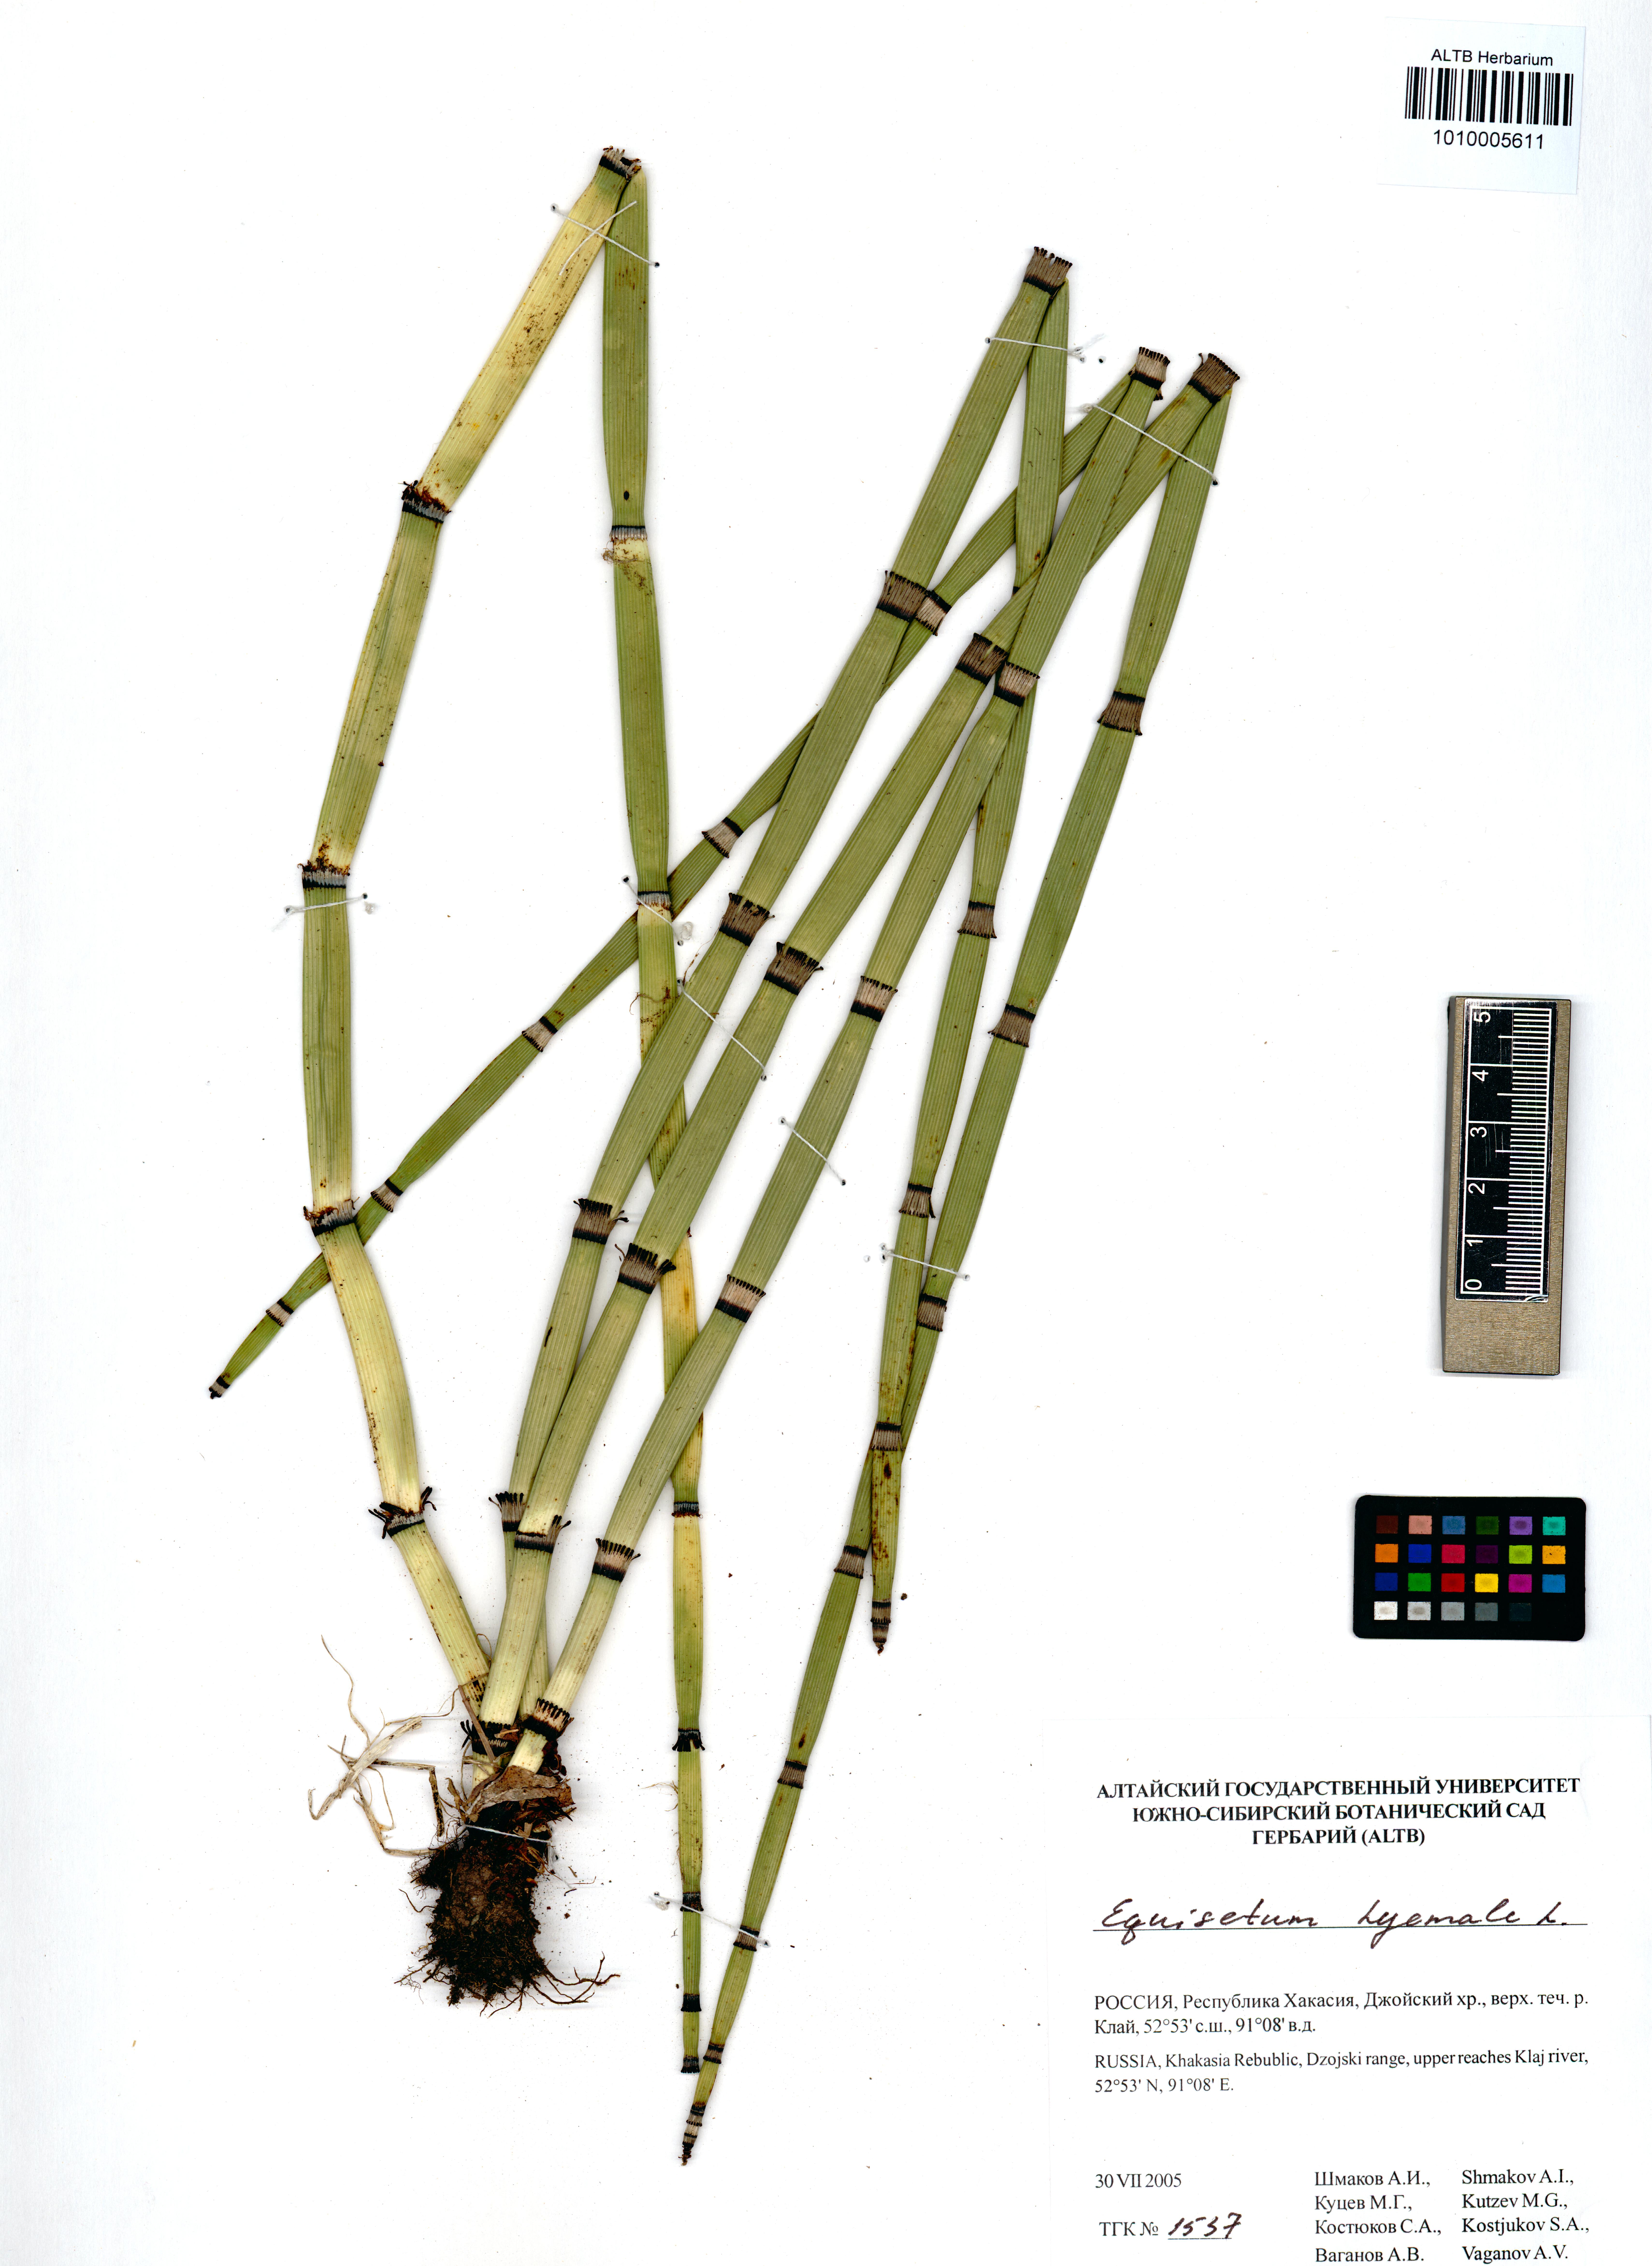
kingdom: Plantae
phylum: Tracheophyta
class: Polypodiopsida
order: Equisetales
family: Equisetaceae
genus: Equisetum
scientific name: Equisetum hyemale
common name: Rough horsetail
